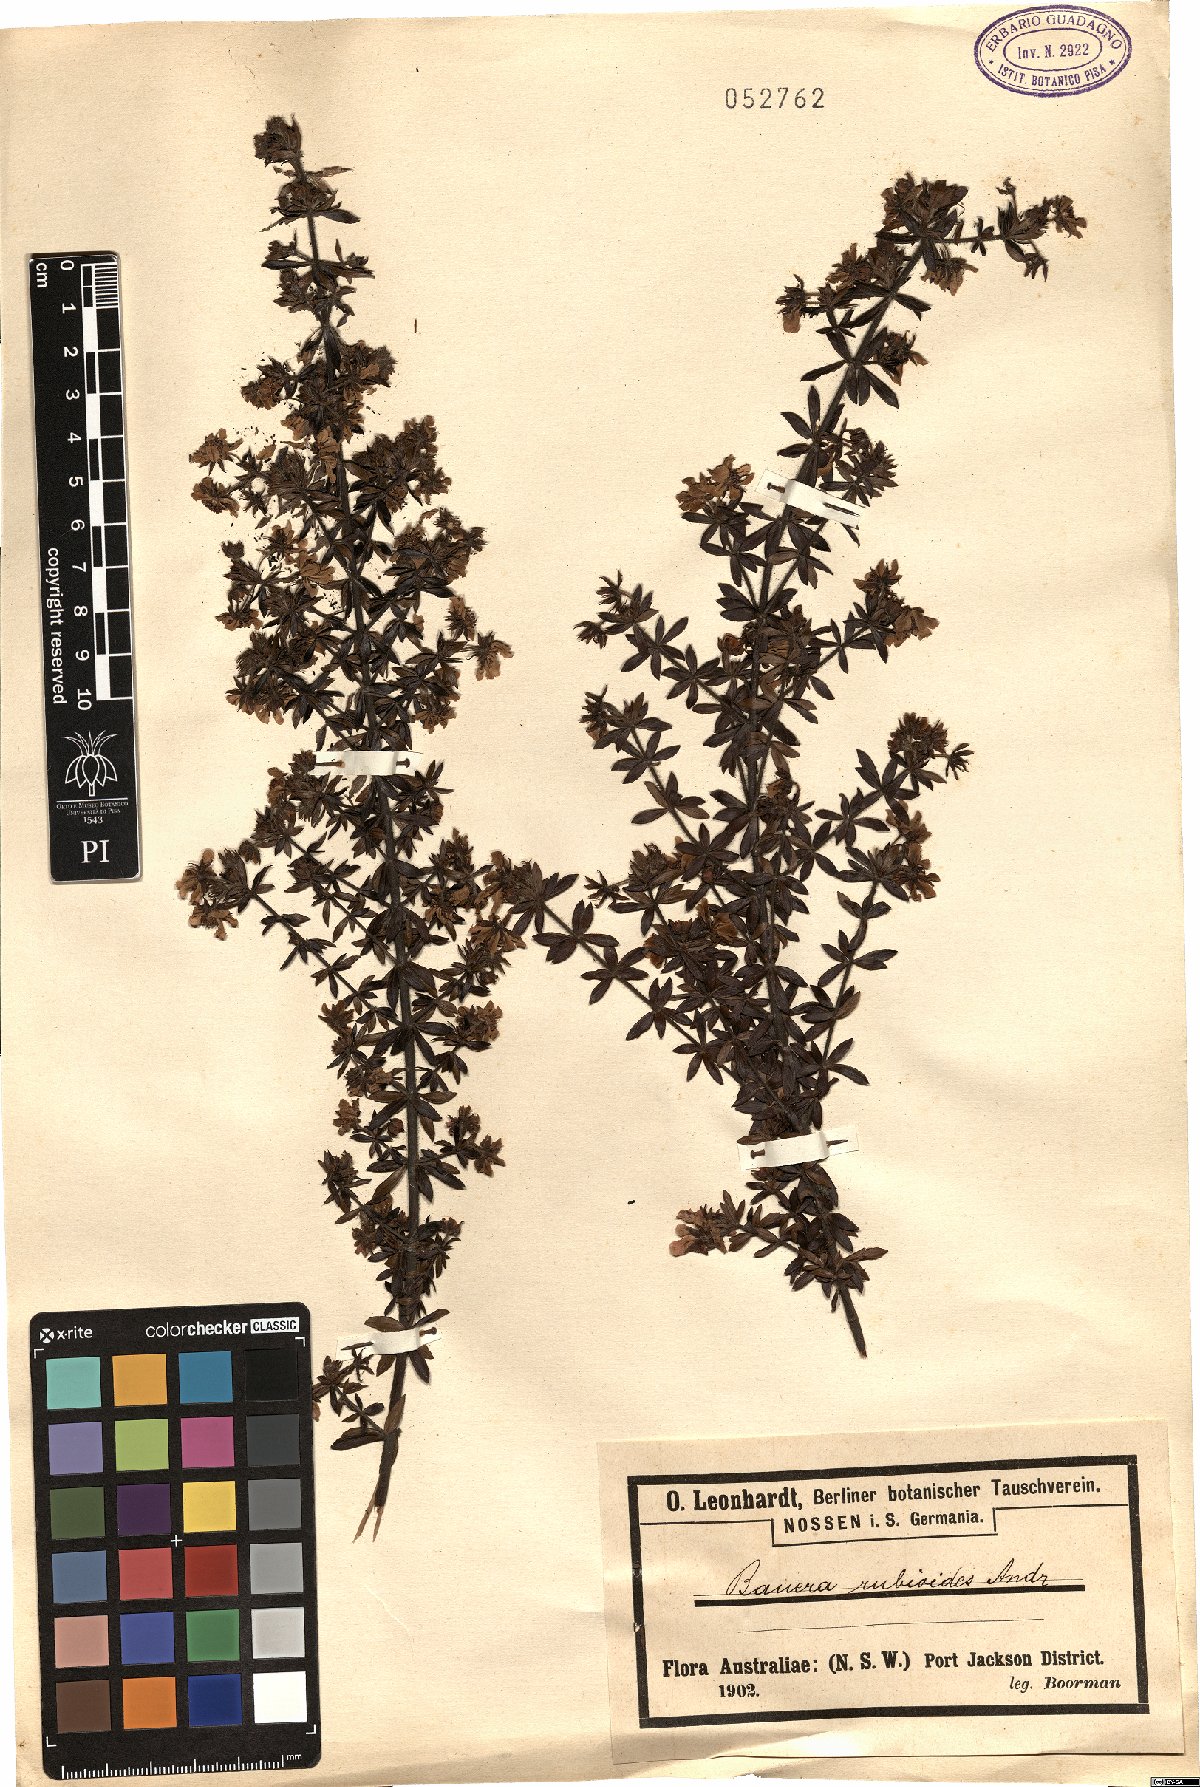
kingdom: Plantae
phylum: Tracheophyta
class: Magnoliopsida
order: Oxalidales
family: Cunoniaceae
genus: Bauera
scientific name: Bauera rubioides
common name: River-rose
